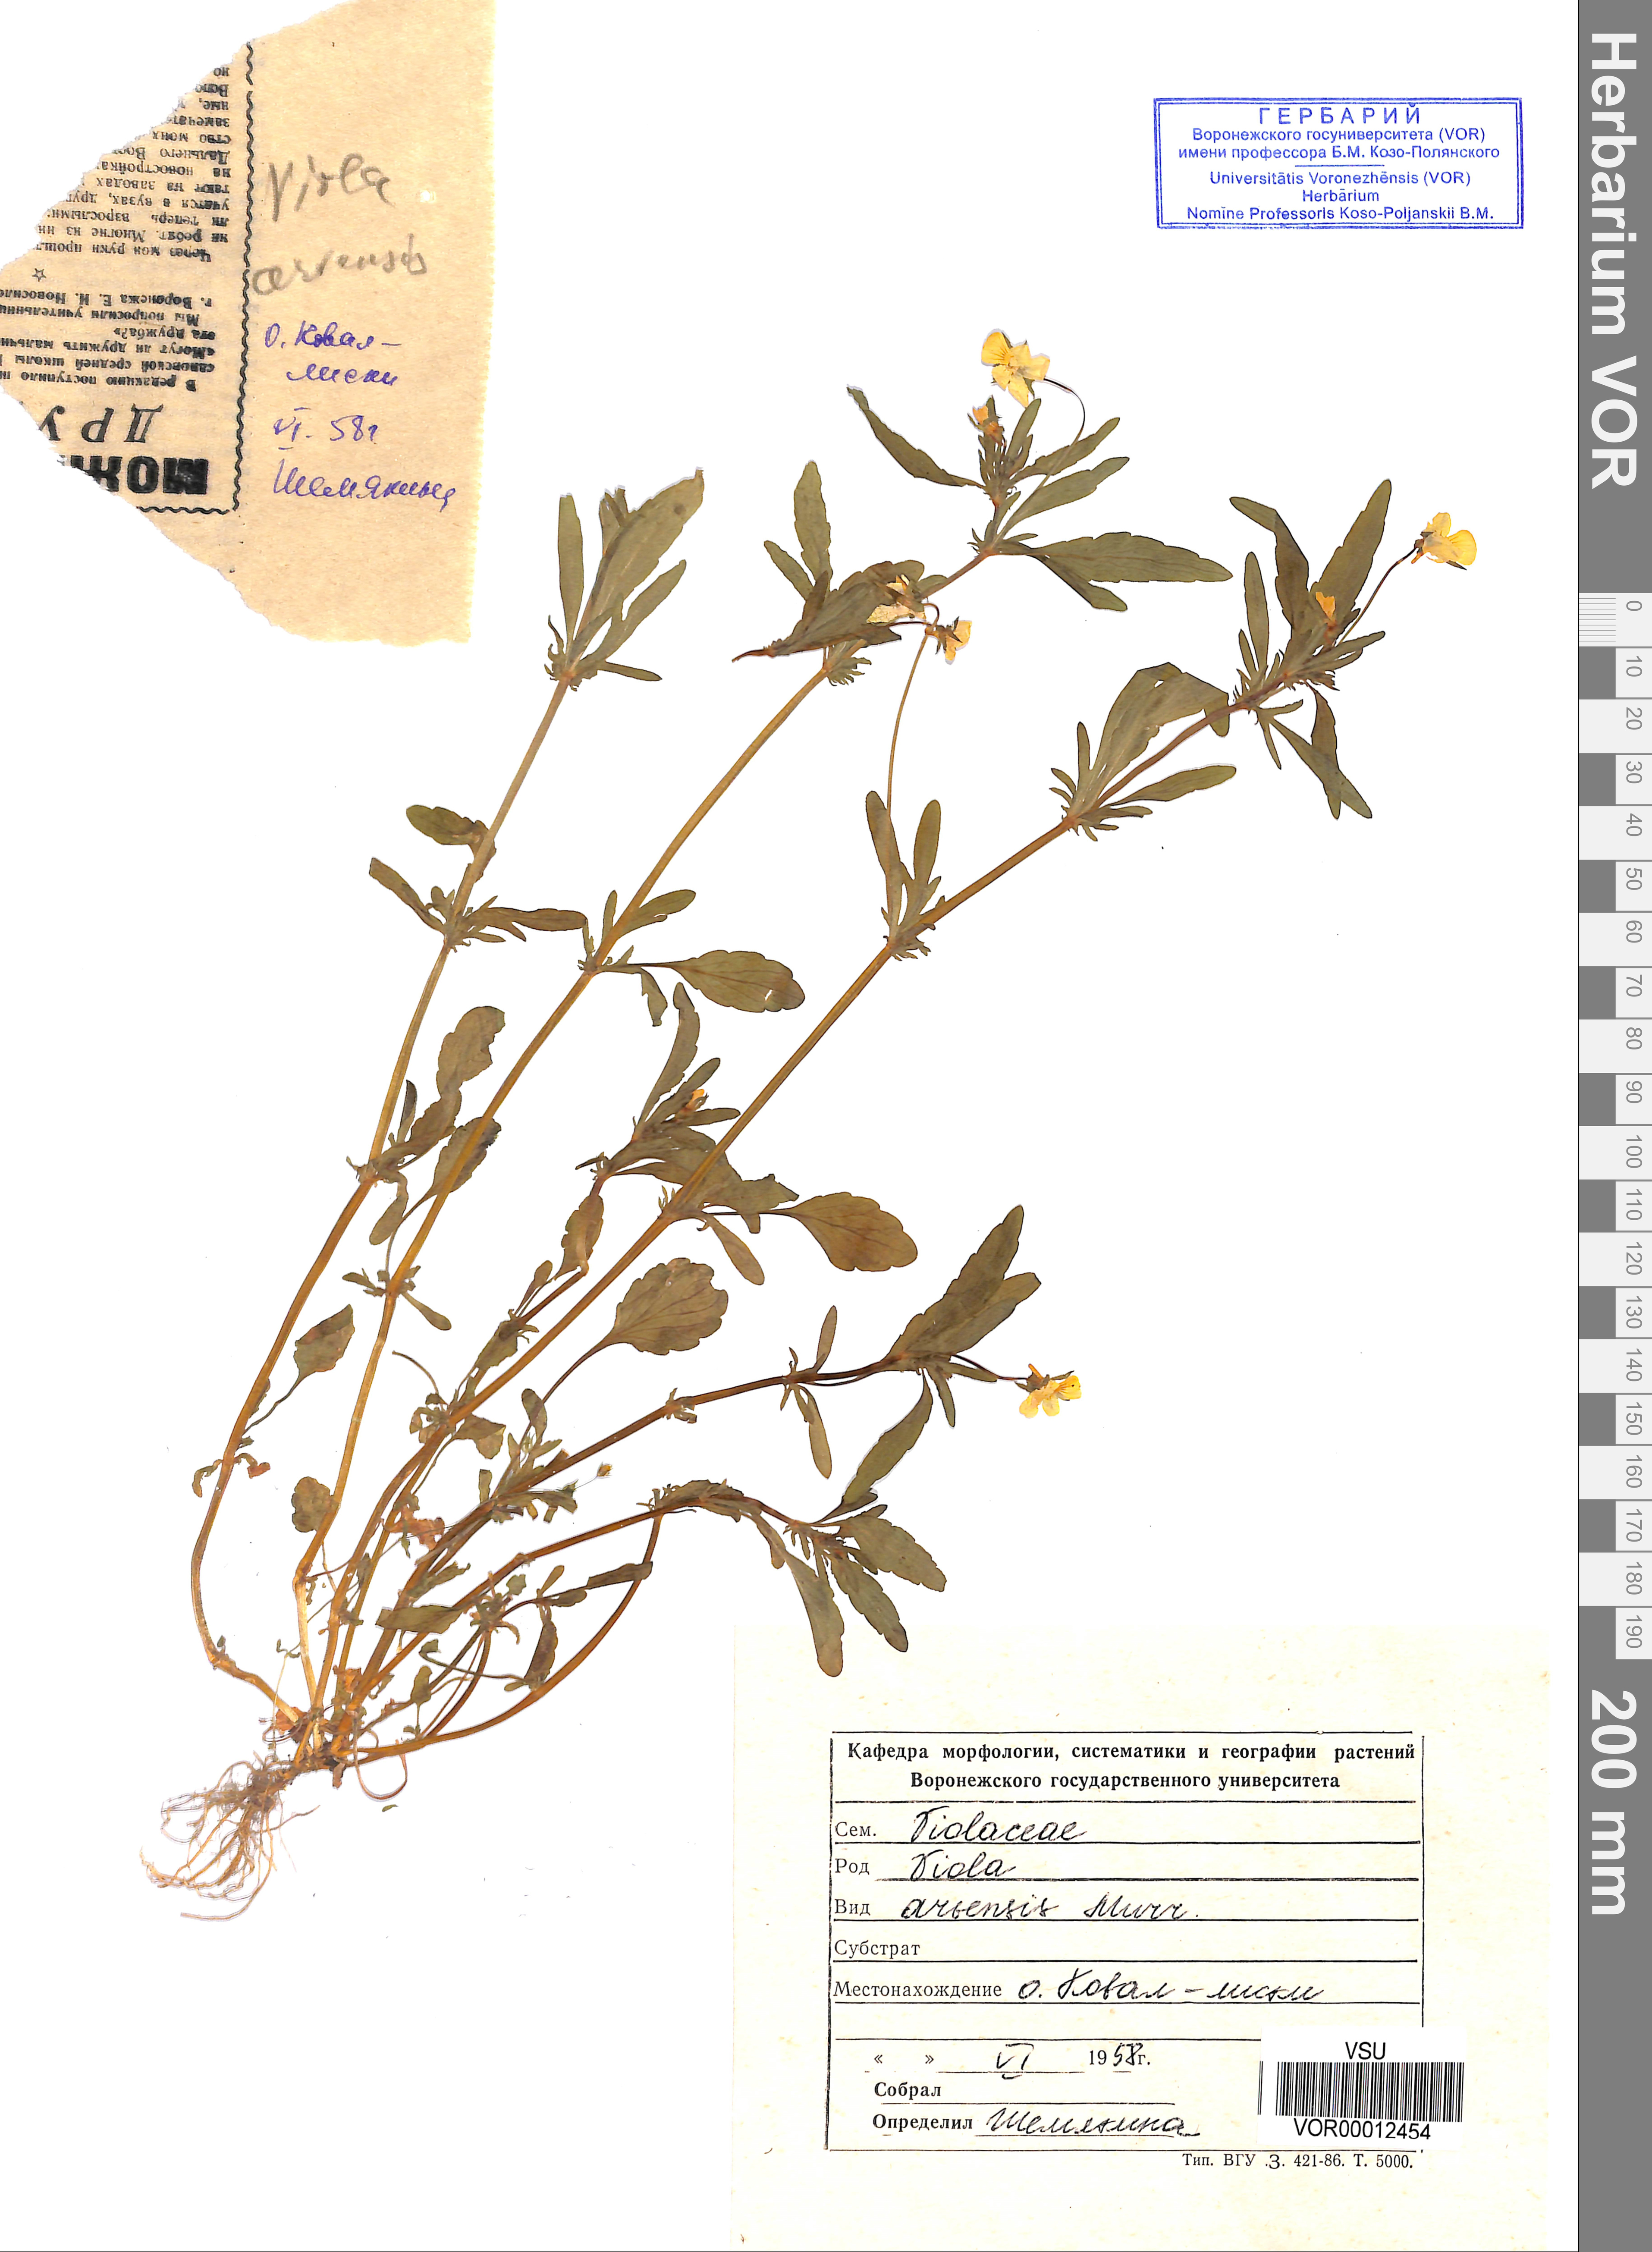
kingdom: Plantae
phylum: Tracheophyta
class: Magnoliopsida
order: Malpighiales
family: Violaceae
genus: Viola
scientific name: Viola arvensis
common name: Field pansy
